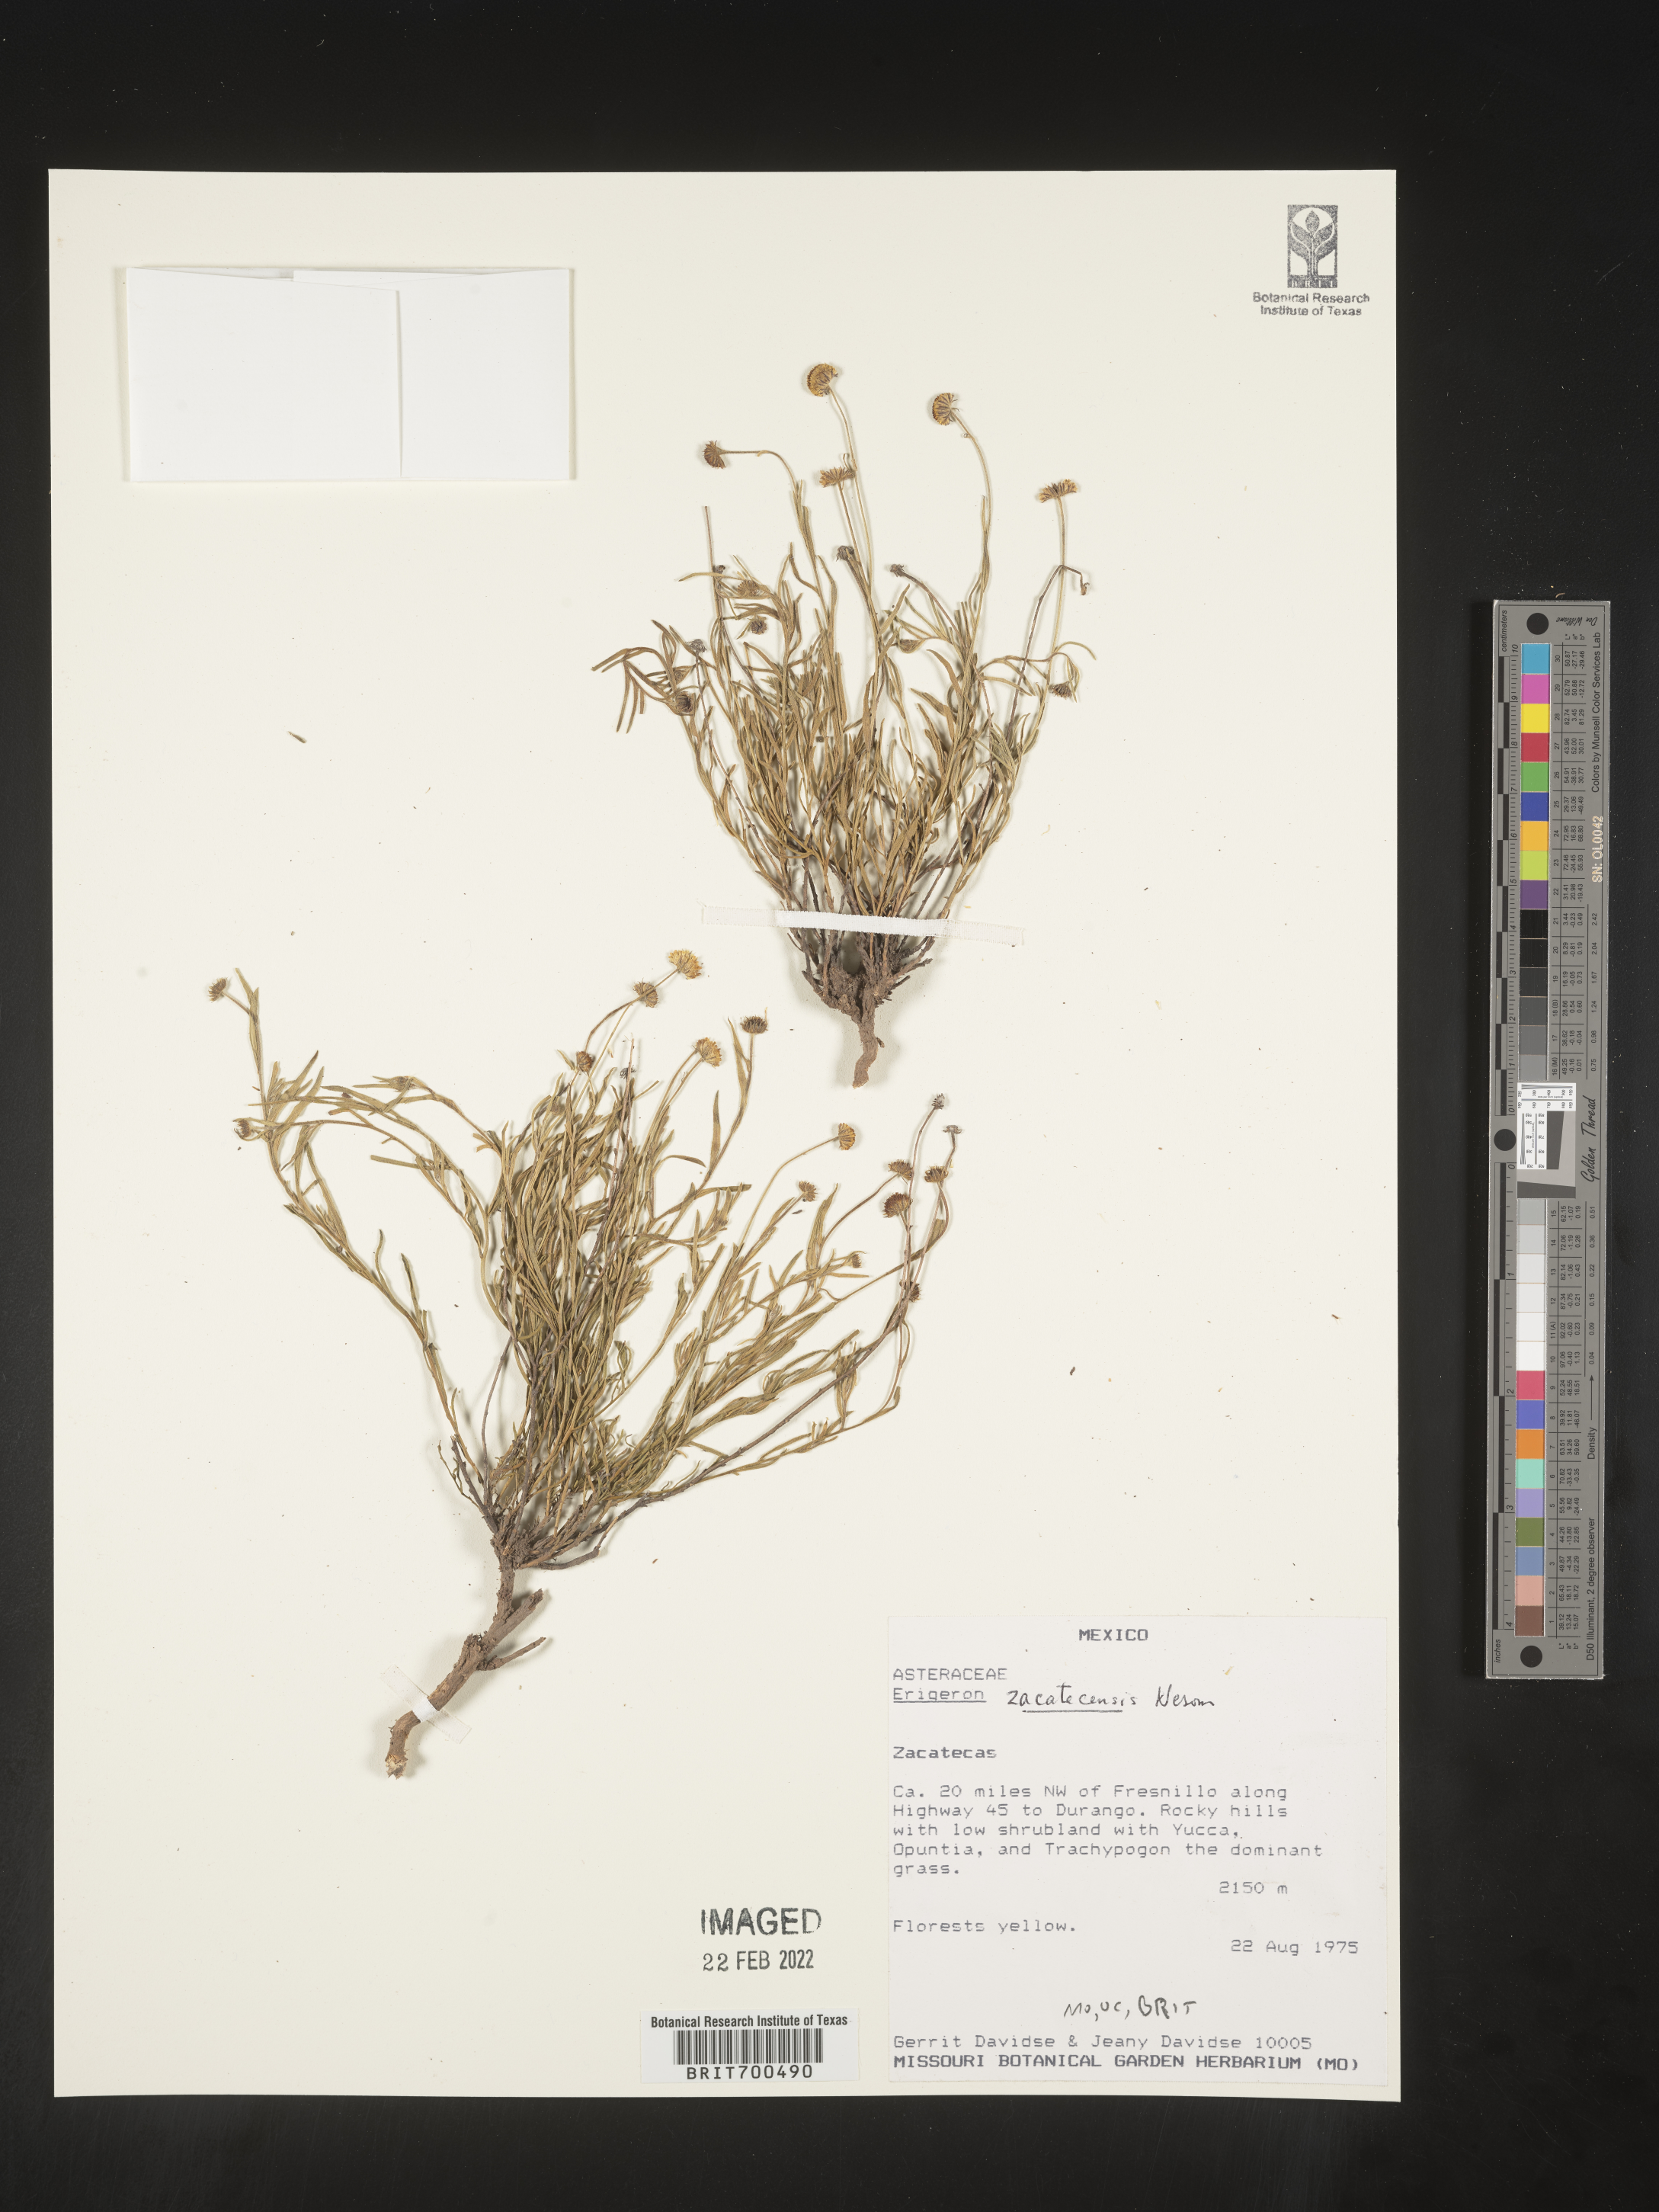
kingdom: Plantae
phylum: Tracheophyta
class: Magnoliopsida
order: Asterales
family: Asteraceae
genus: Erigeron
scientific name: Erigeron
